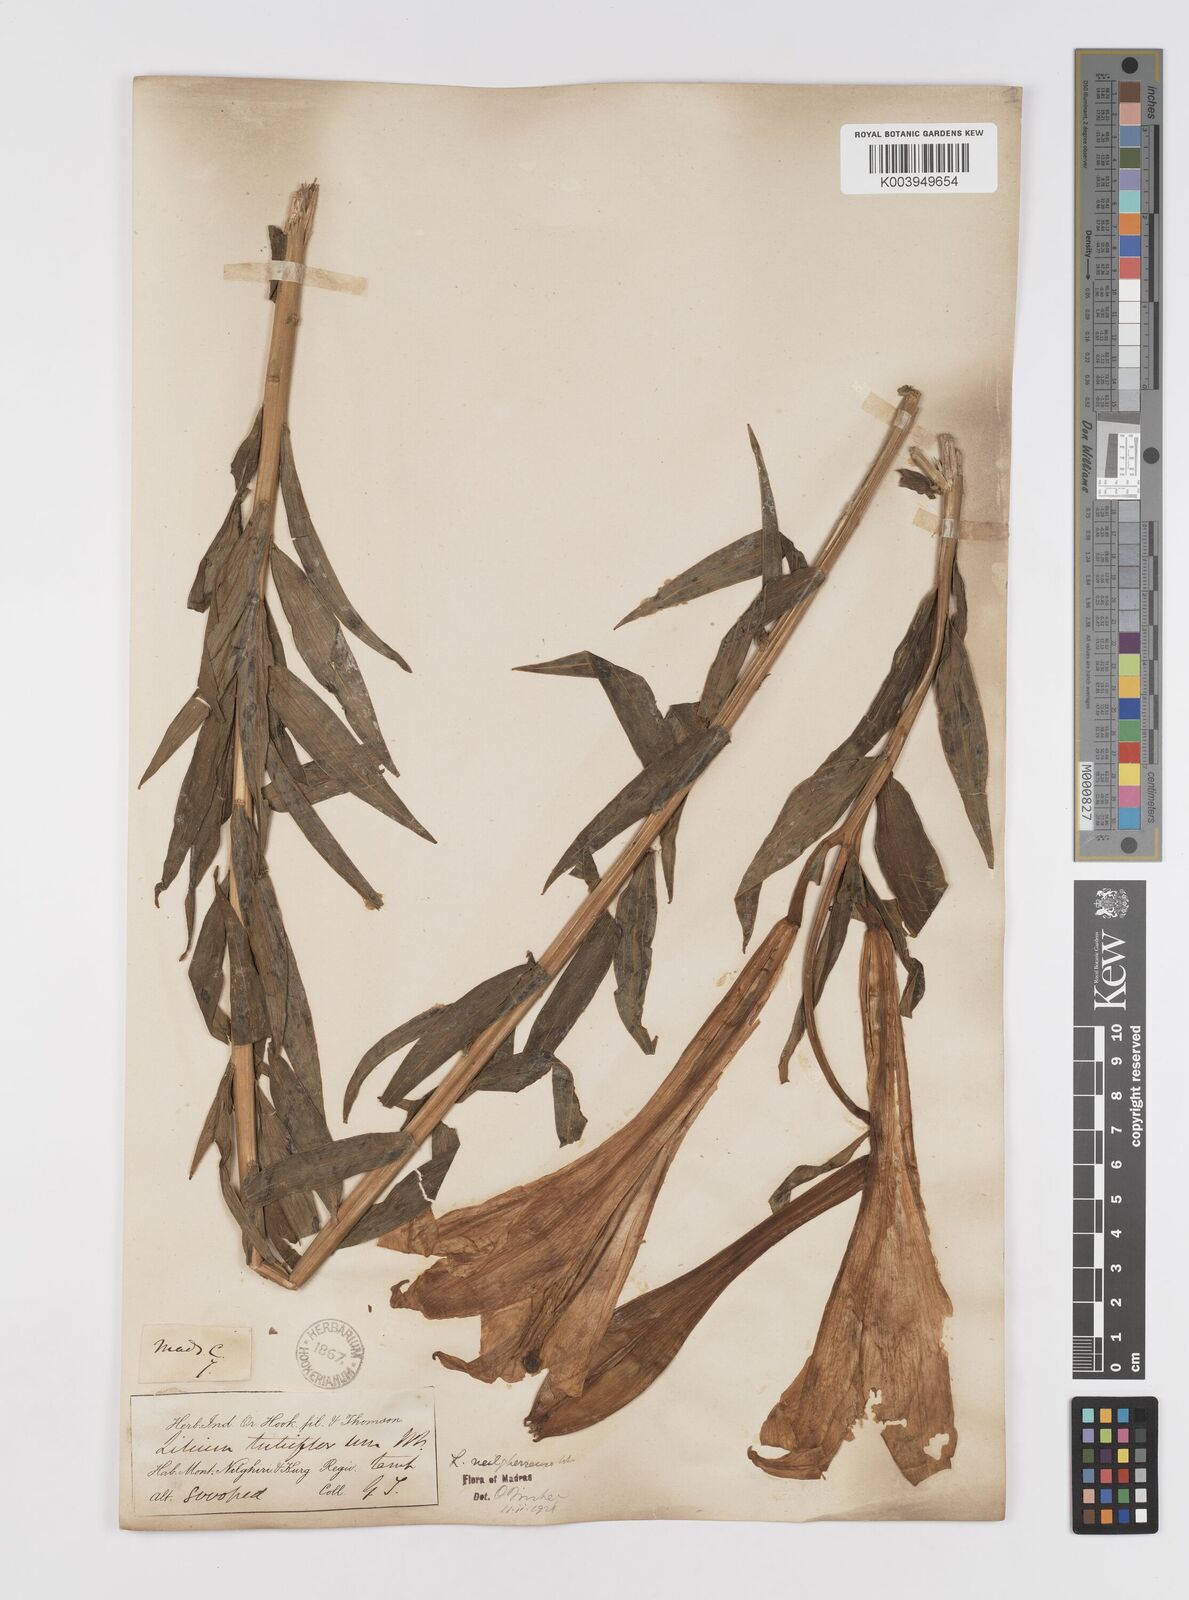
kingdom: Plantae
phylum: Tracheophyta
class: Liliopsida
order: Liliales
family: Liliaceae
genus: Lilium
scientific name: Lilium wallichianum
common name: Wallich's lily
